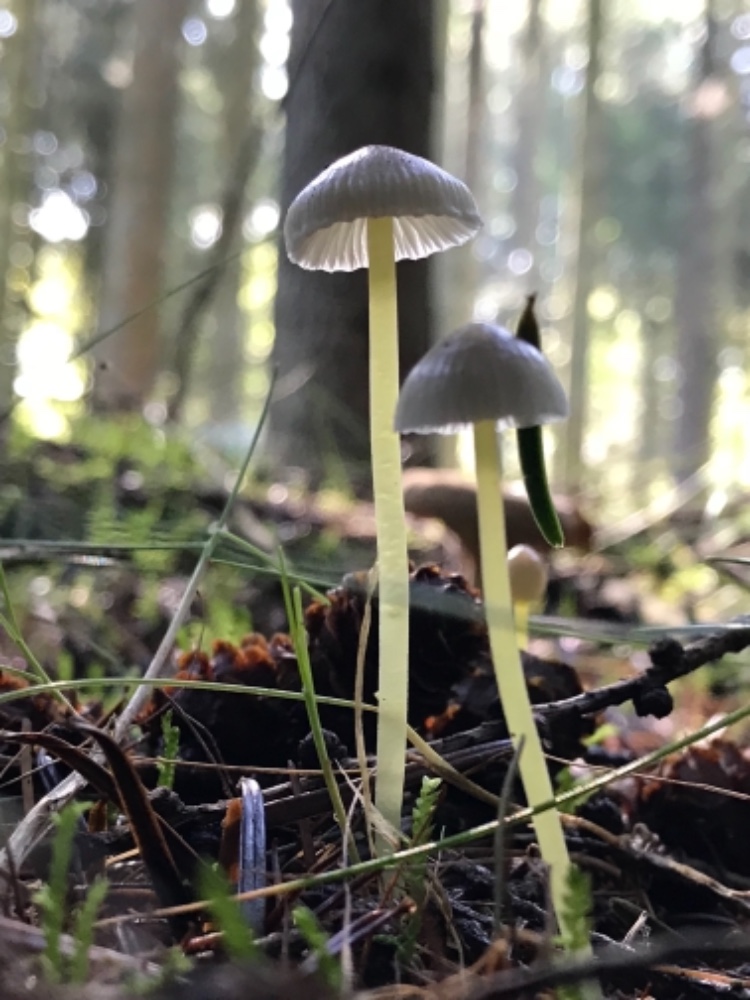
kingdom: Fungi
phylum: Basidiomycota
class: Agaricomycetes
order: Agaricales
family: Mycenaceae
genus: Mycena
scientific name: Mycena epipterygia
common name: gulstokket huesvamp
